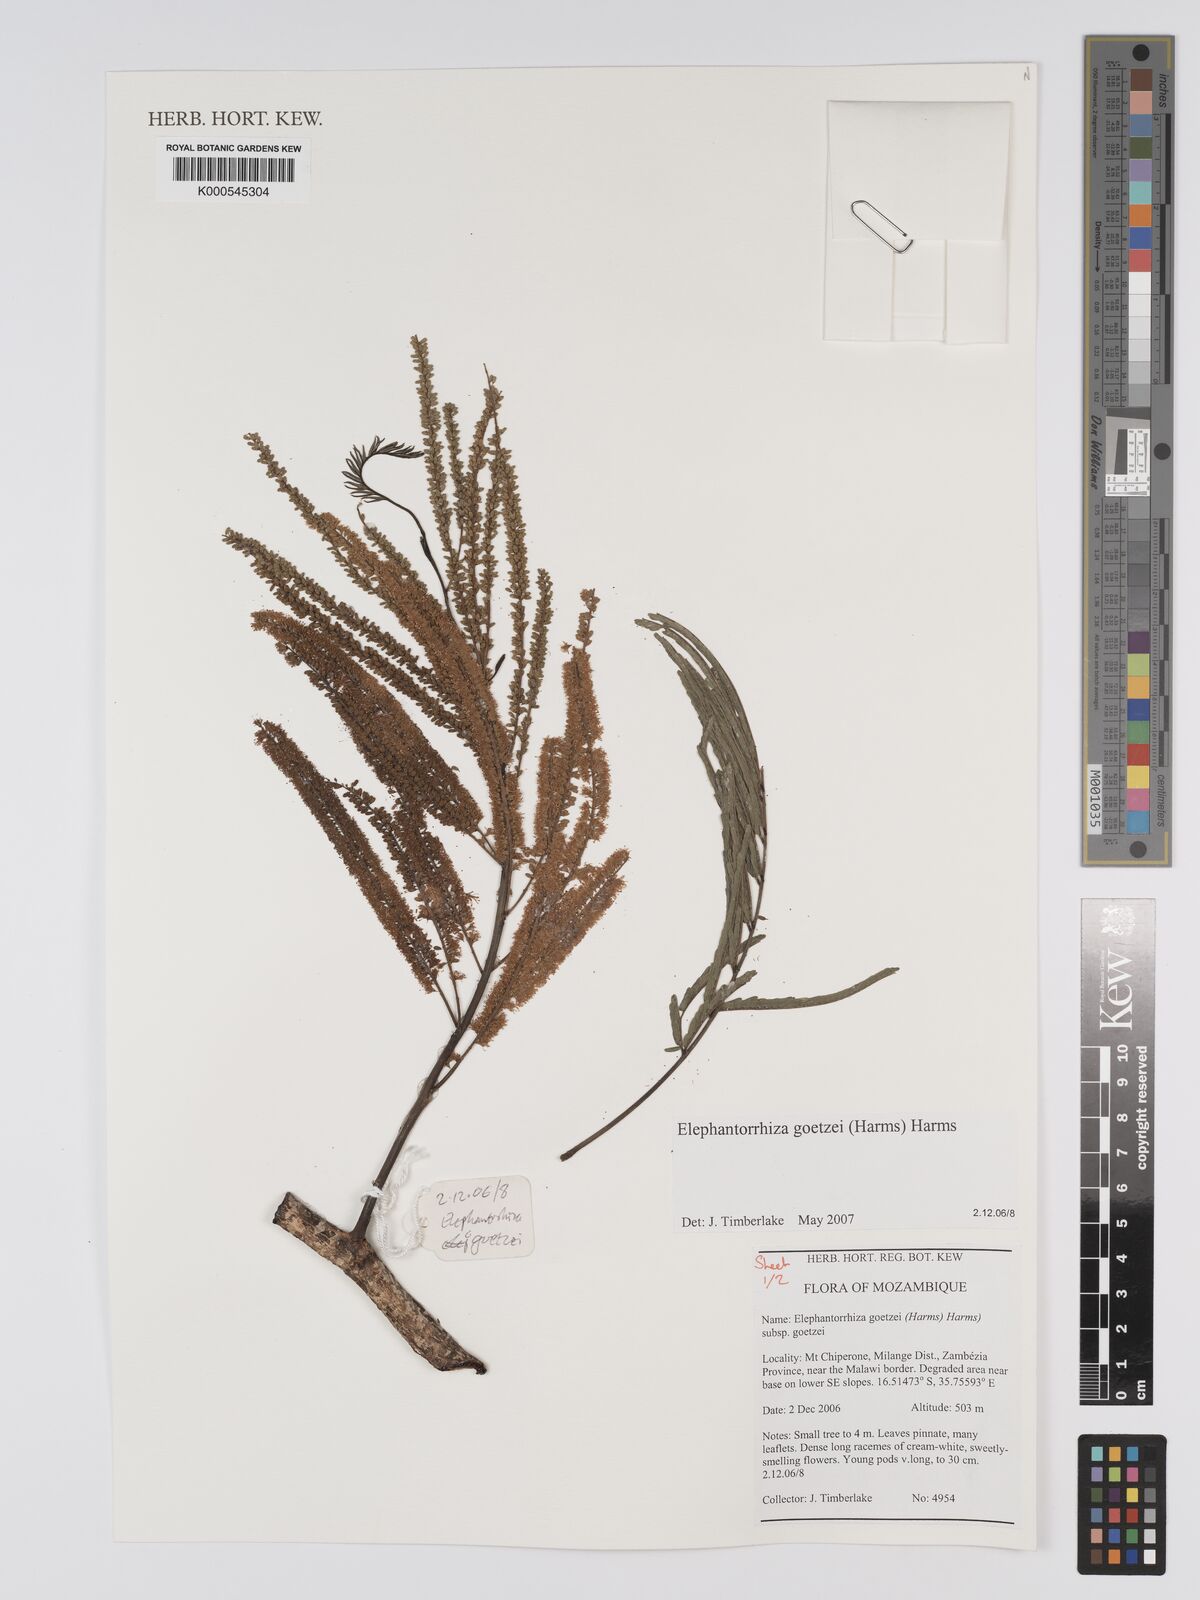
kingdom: Plantae
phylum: Tracheophyta
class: Magnoliopsida
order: Fabales
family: Fabaceae
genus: Elephantorrhiza
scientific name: Elephantorrhiza goetzei
